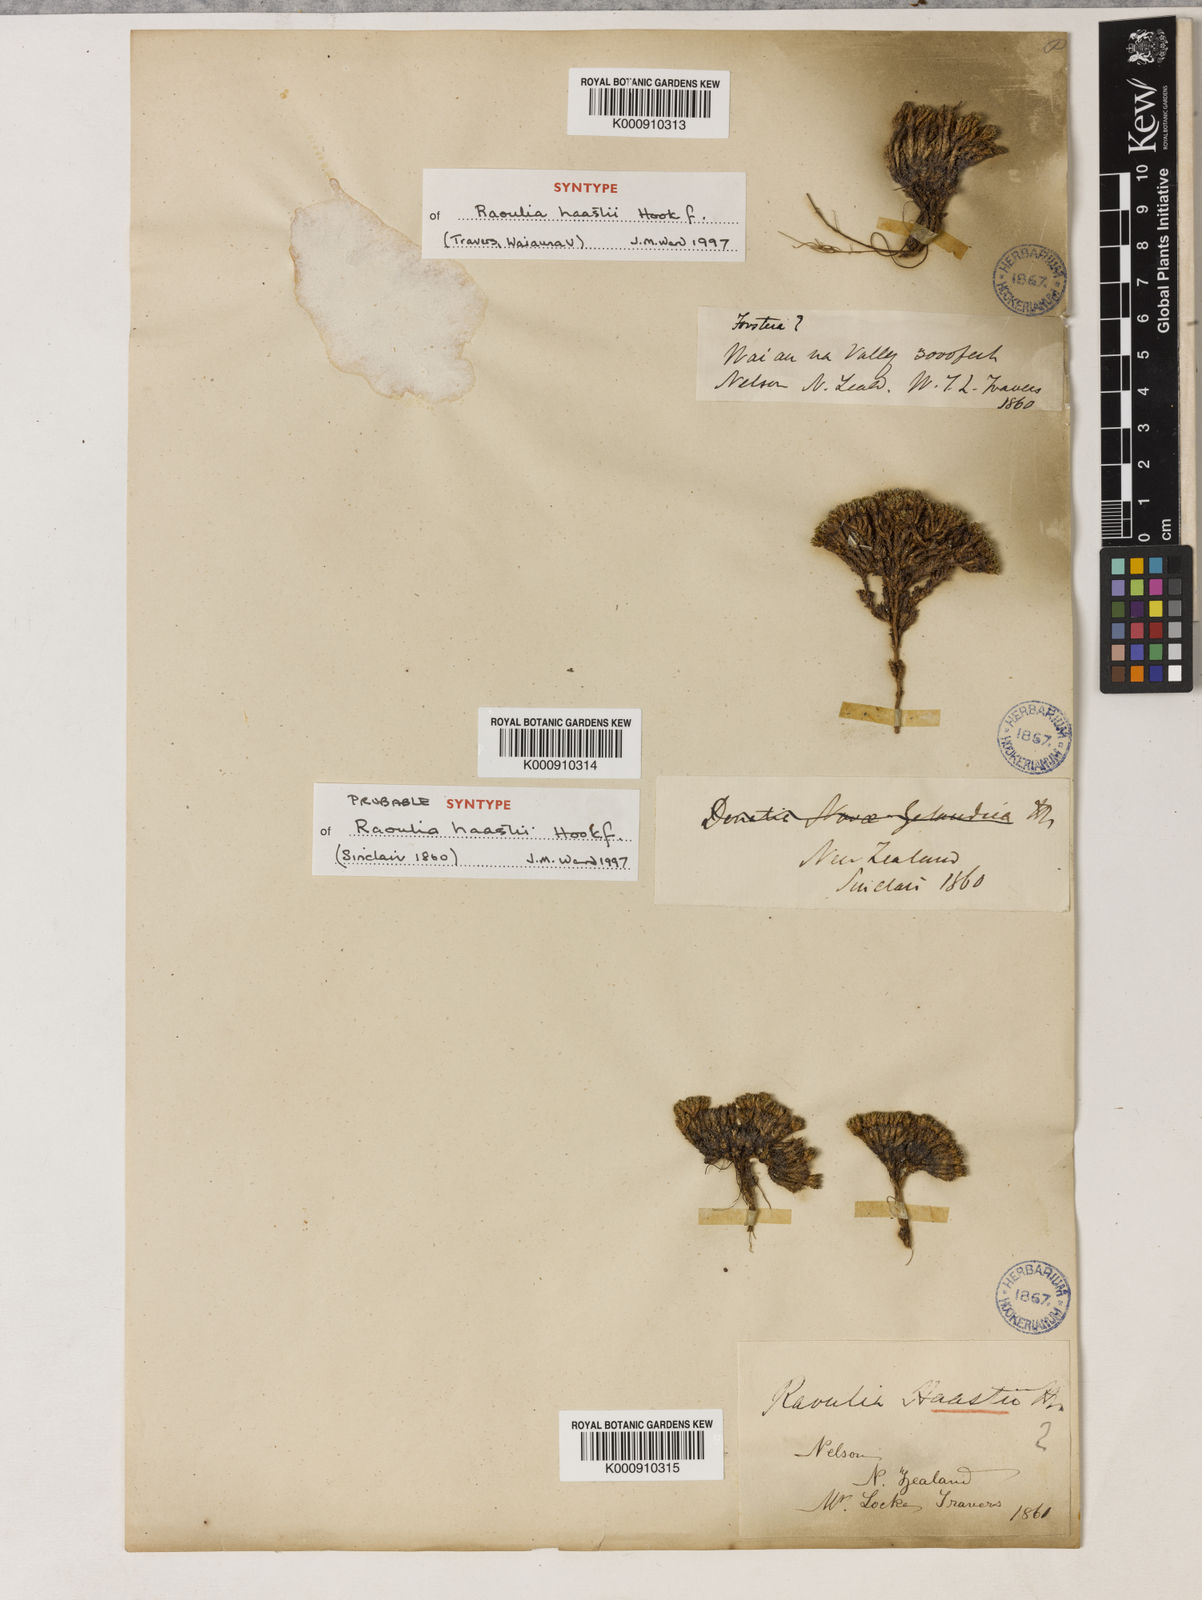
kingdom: Plantae
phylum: Tracheophyta
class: Magnoliopsida
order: Asterales
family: Asteraceae
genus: Raoulia
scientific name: Raoulia haastii
